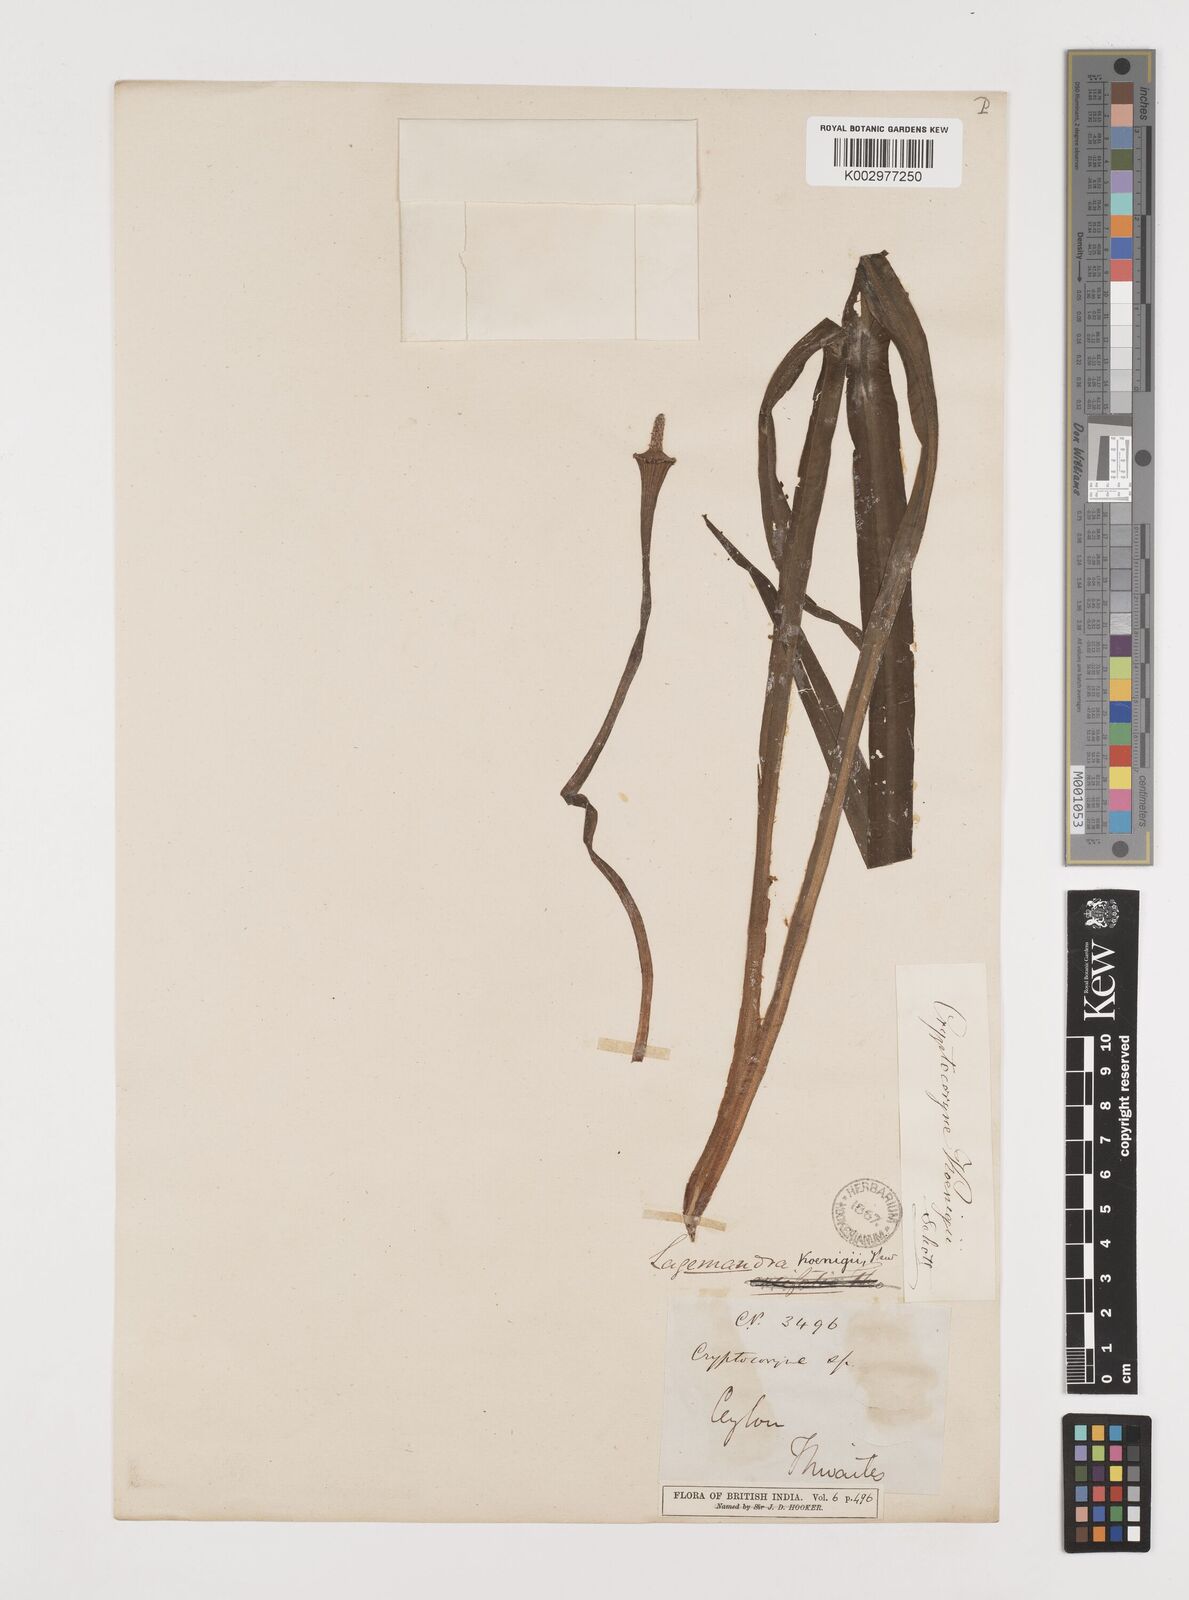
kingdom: Plantae
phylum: Tracheophyta
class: Liliopsida
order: Alismatales
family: Araceae
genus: Lagenandra
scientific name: Lagenandra koenigii
